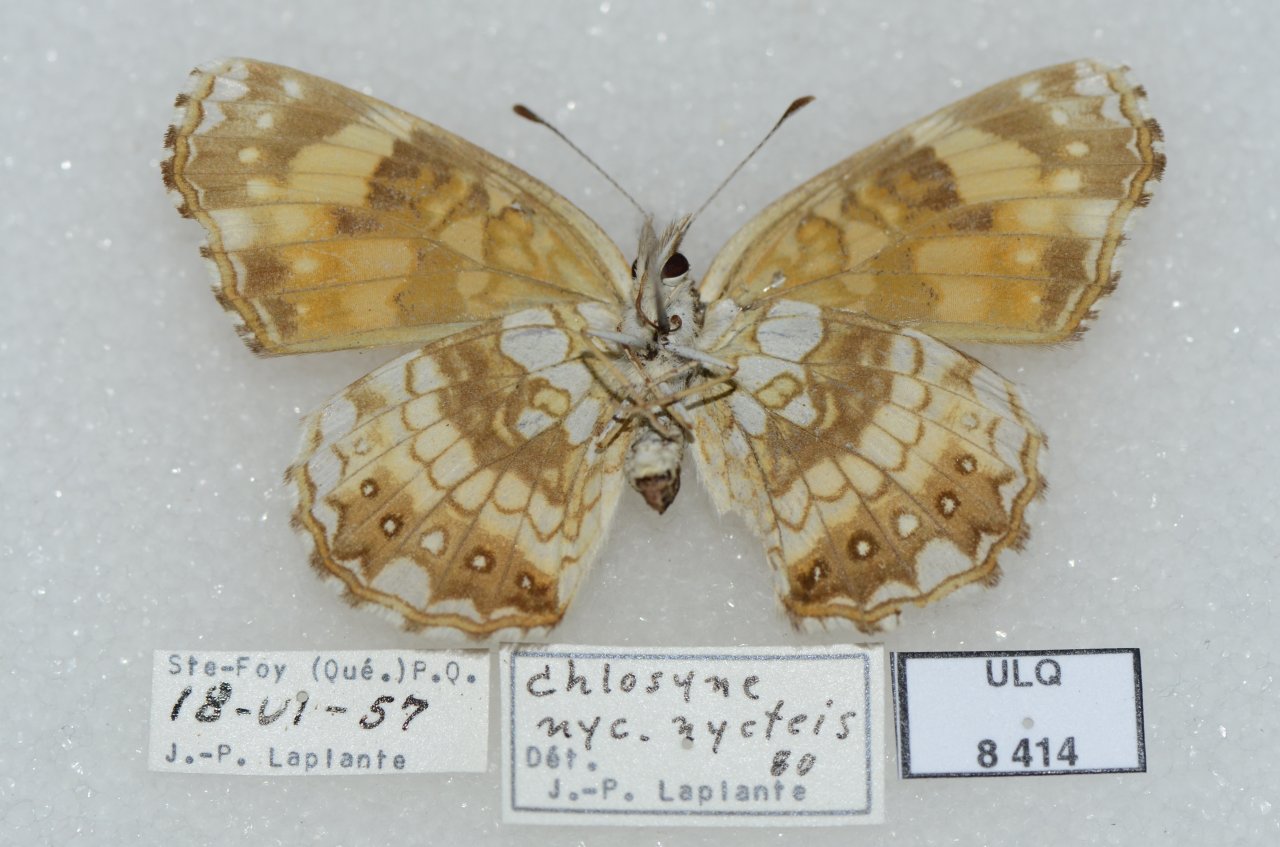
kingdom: Animalia
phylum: Arthropoda
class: Insecta
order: Lepidoptera
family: Nymphalidae
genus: Chlosyne
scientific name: Chlosyne nycteis
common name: Silvery Checkerspot
